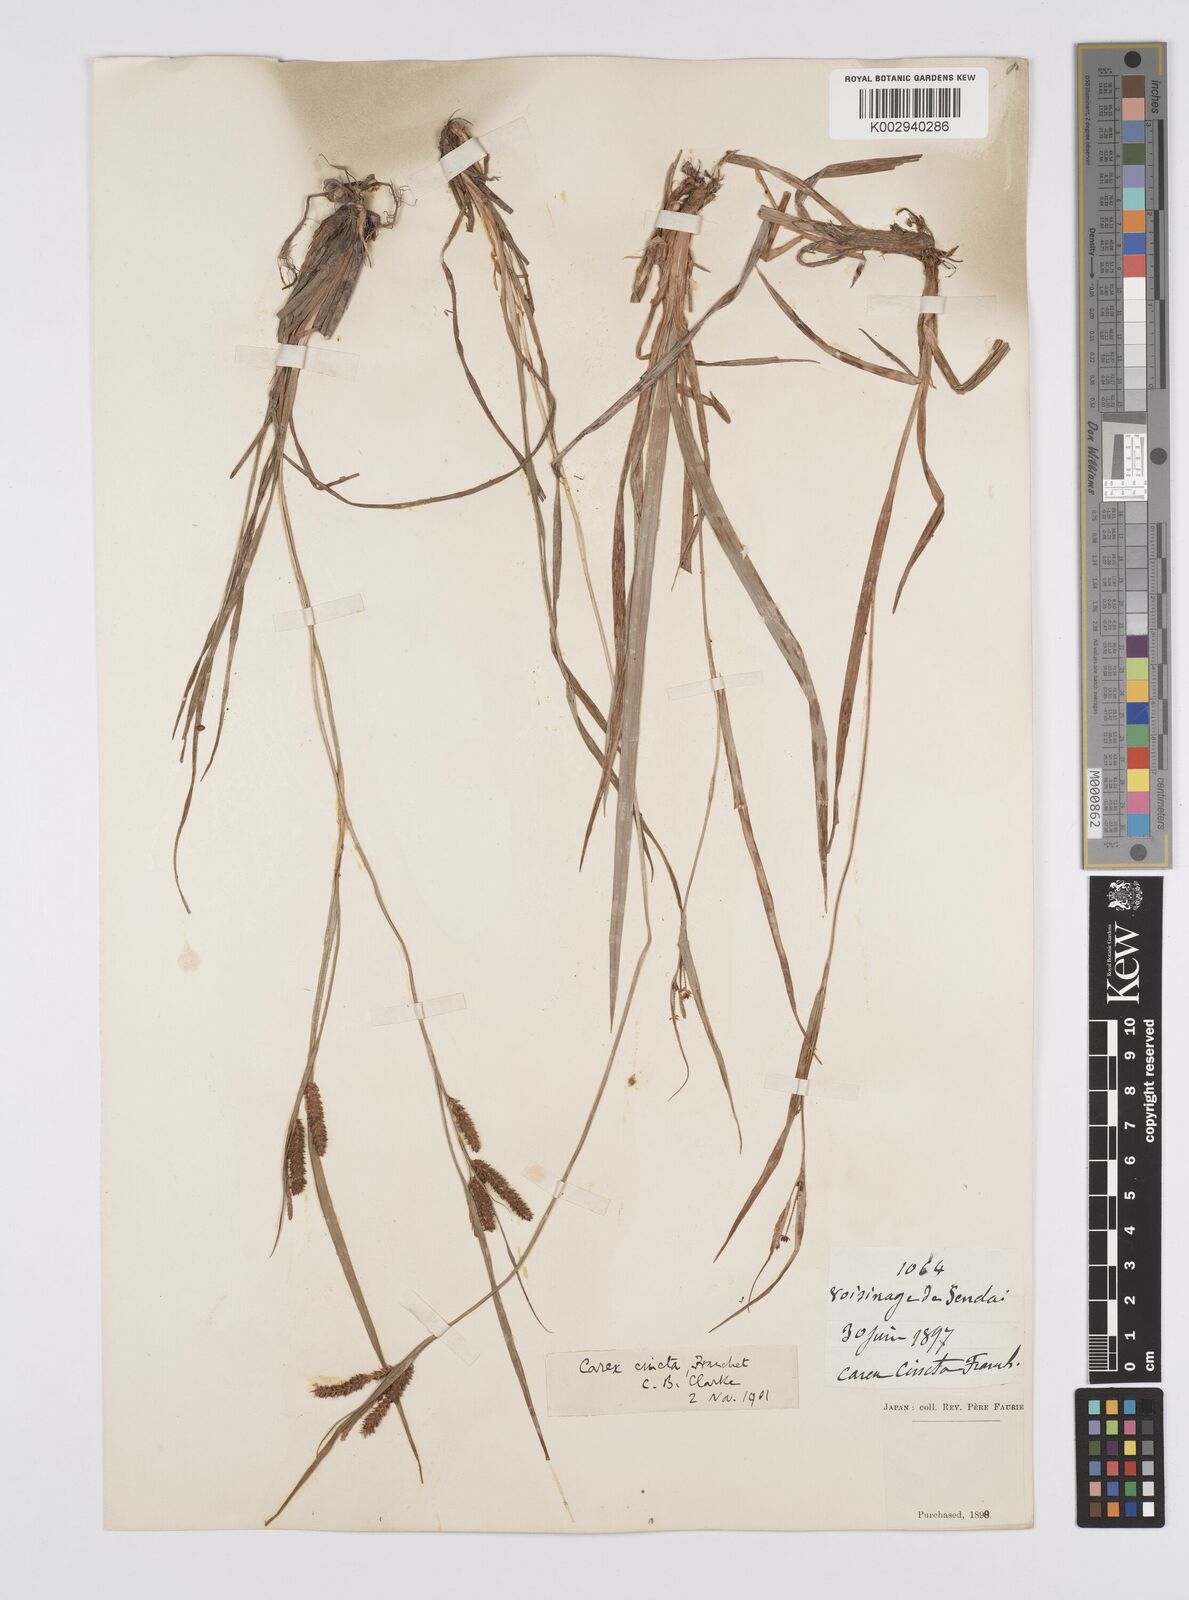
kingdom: Plantae
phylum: Tracheophyta
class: Liliopsida
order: Poales
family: Cyperaceae
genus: Carex
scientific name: Carex phacota
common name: Lakeshore sedge
